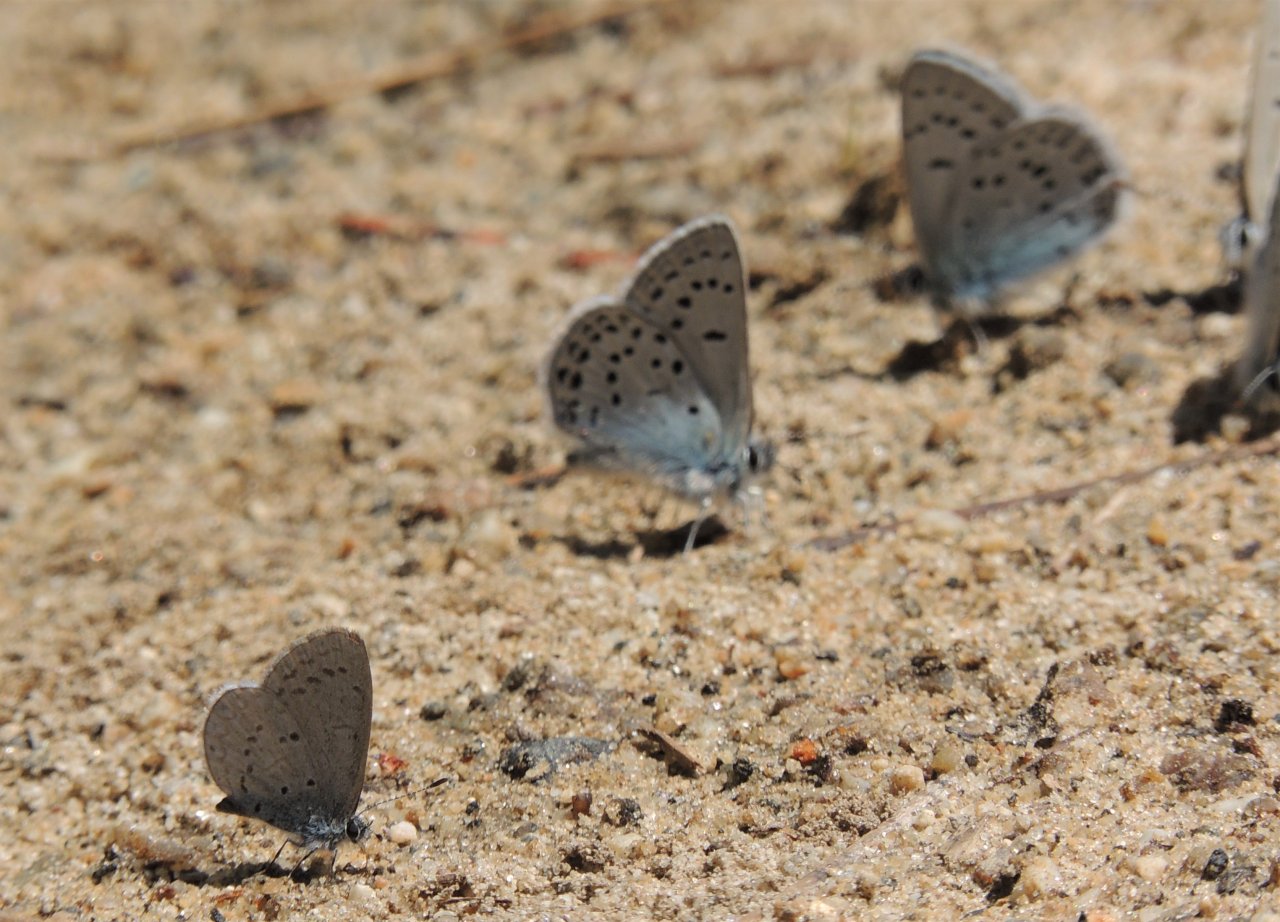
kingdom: Animalia
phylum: Arthropoda
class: Insecta
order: Lepidoptera
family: Lycaenidae
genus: Icaricia
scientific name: Icaricia icarioides
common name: Boisduval's Blue
